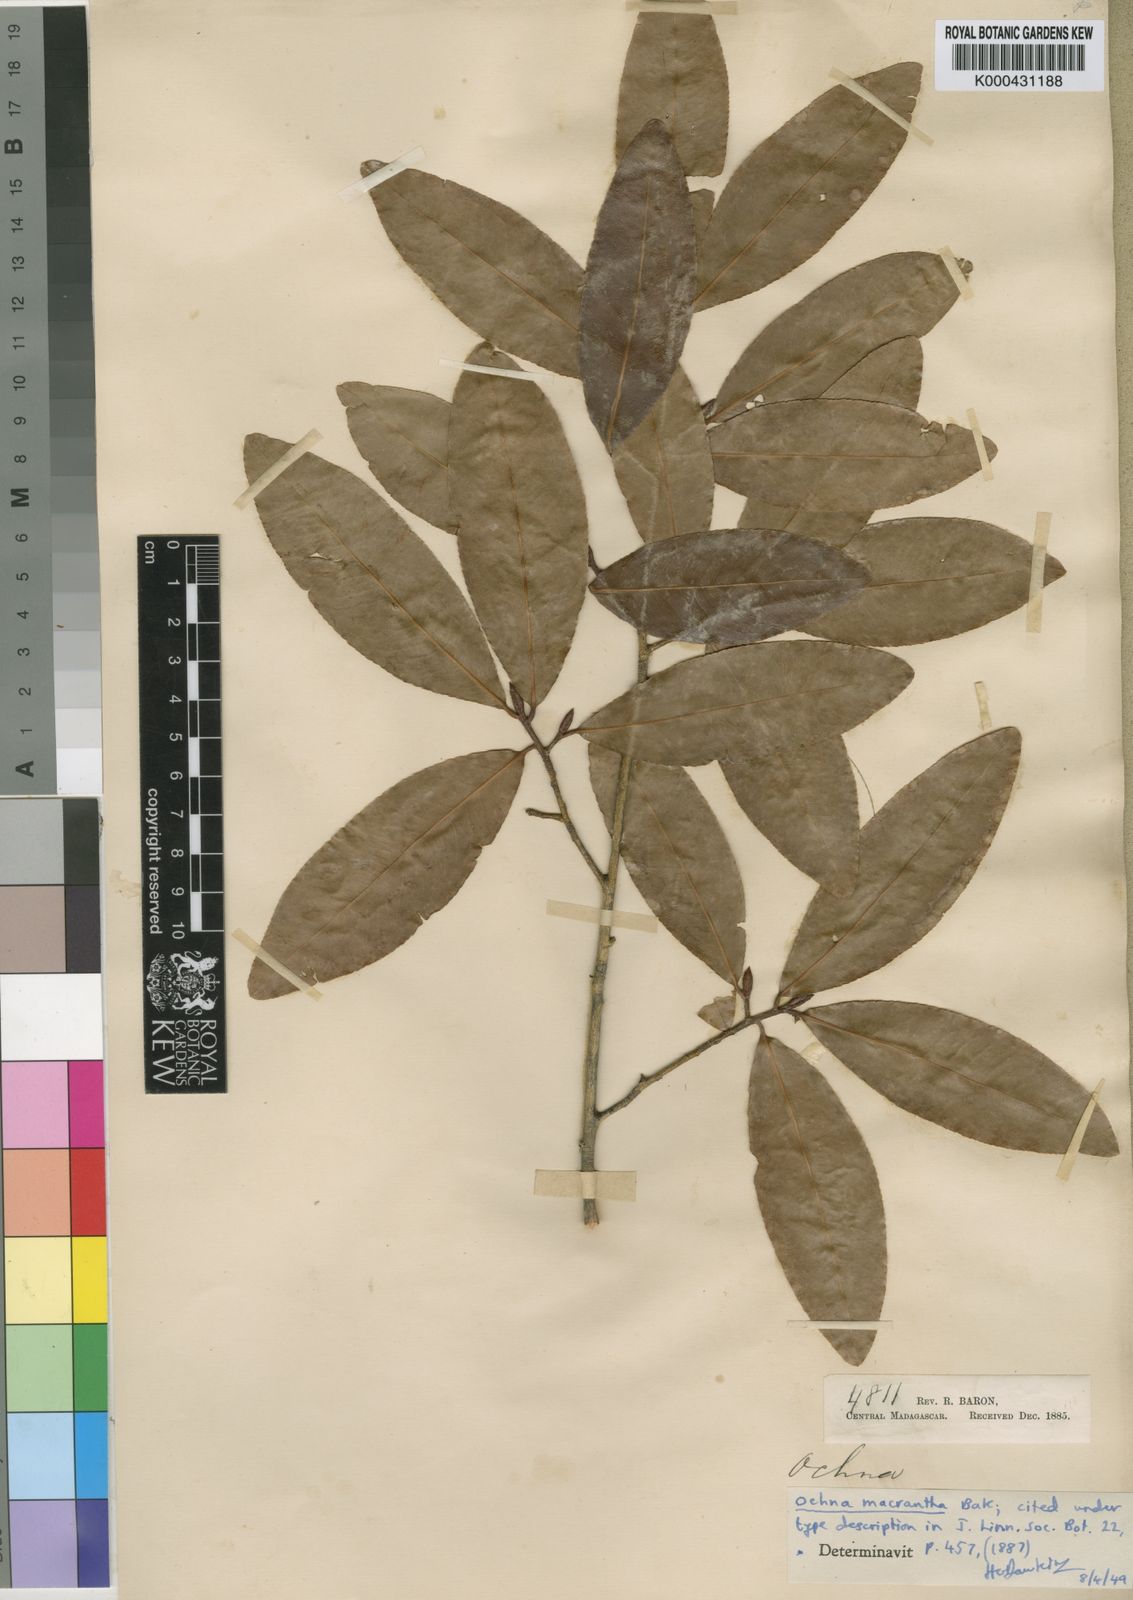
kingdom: Plantae
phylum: Tracheophyta
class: Magnoliopsida
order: Malpighiales
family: Ochnaceae
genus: Ochna
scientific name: Ochna macrantha
